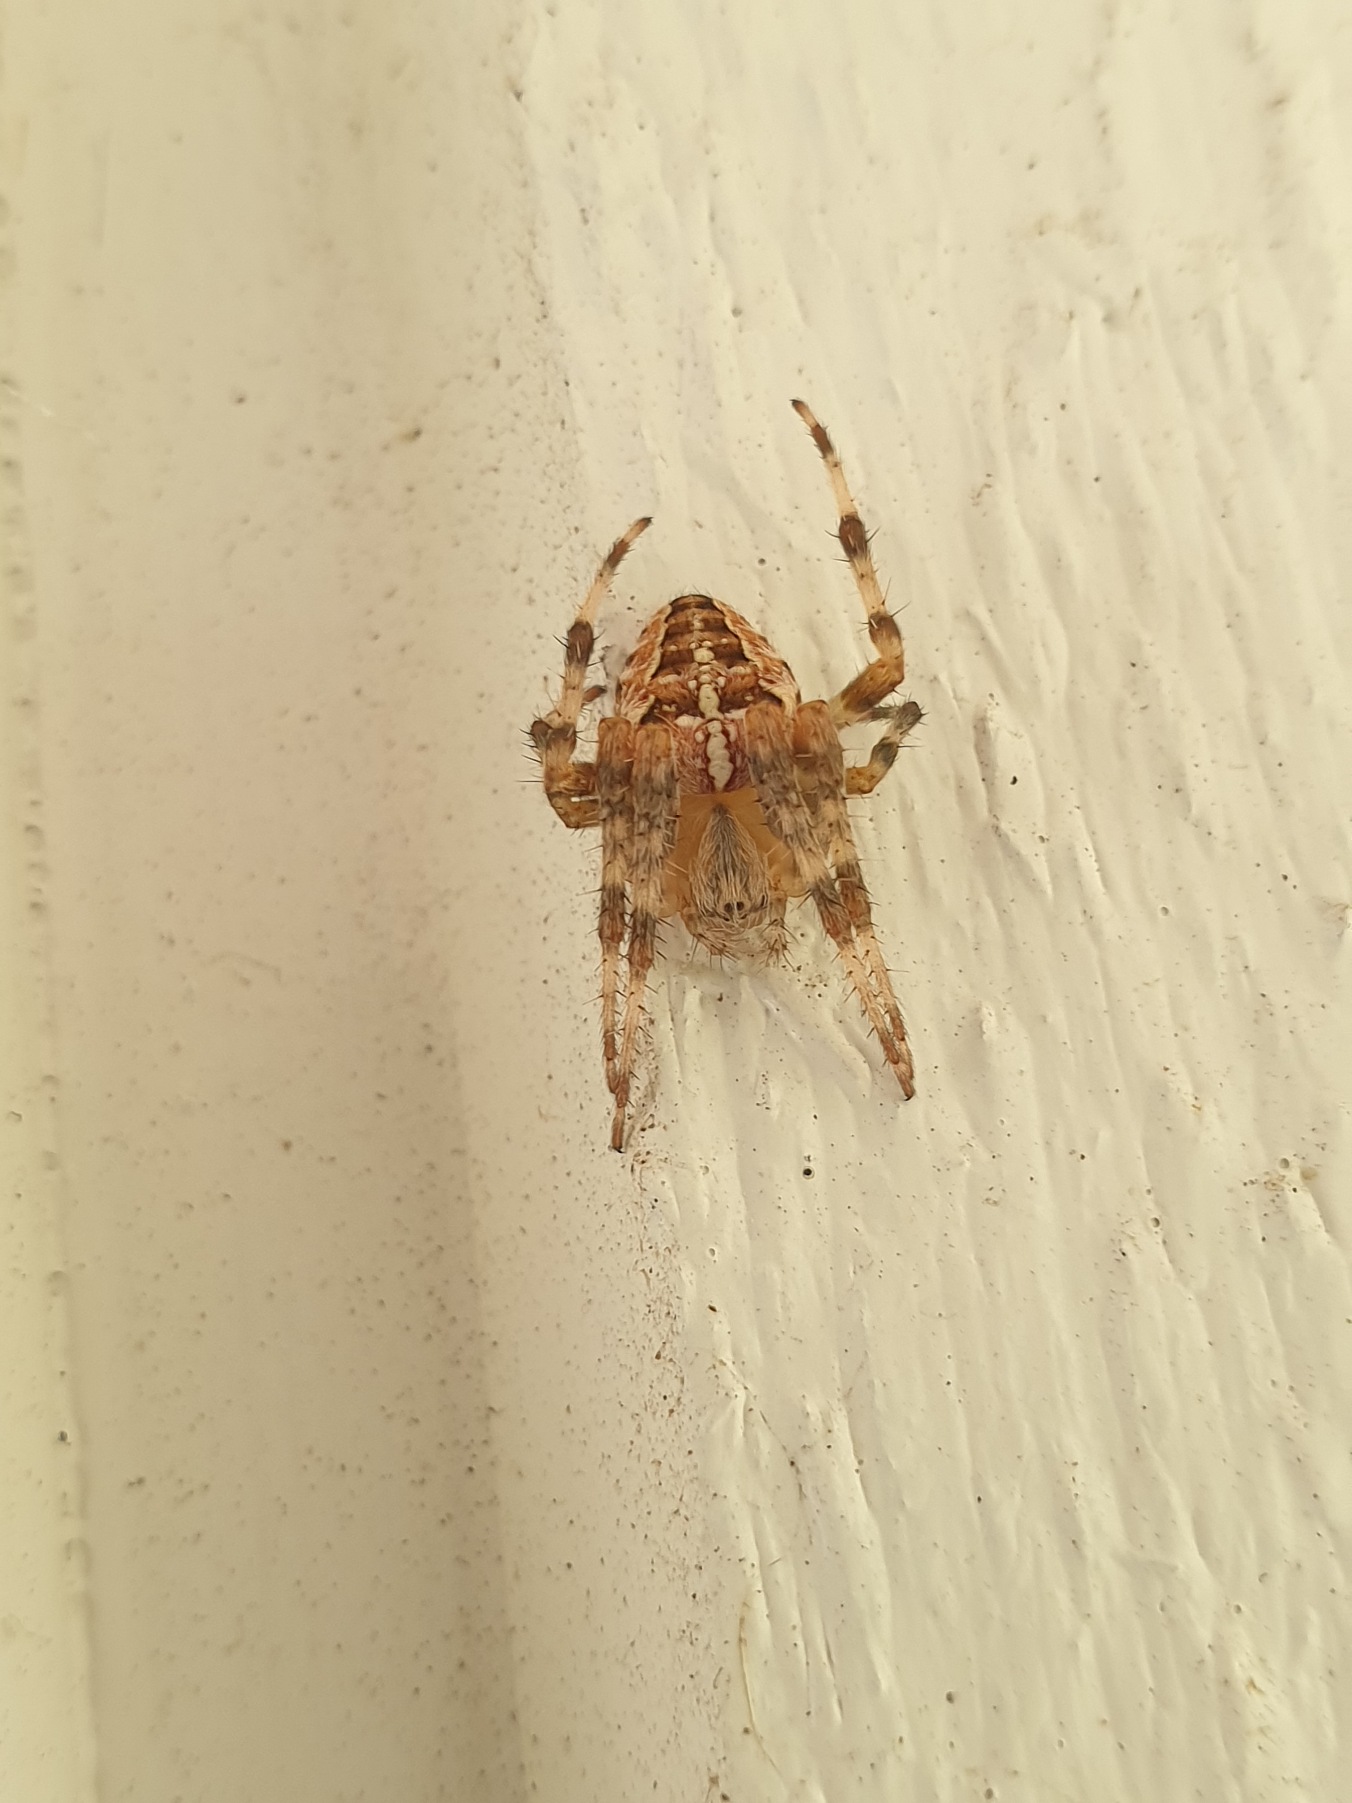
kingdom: Animalia
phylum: Arthropoda
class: Arachnida
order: Araneae
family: Araneidae
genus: Araneus
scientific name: Araneus diadematus
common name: Korsedderkop
